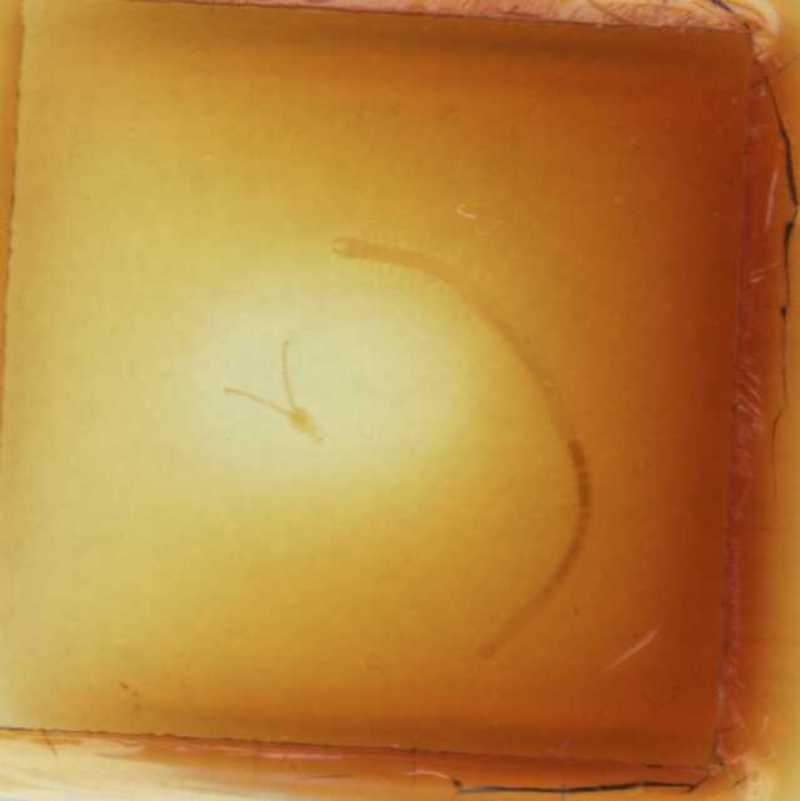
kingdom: Animalia
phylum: Arthropoda
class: Chilopoda
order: Geophilomorpha
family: Schendylidae
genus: Schendylunguis
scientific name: Schendylunguis
